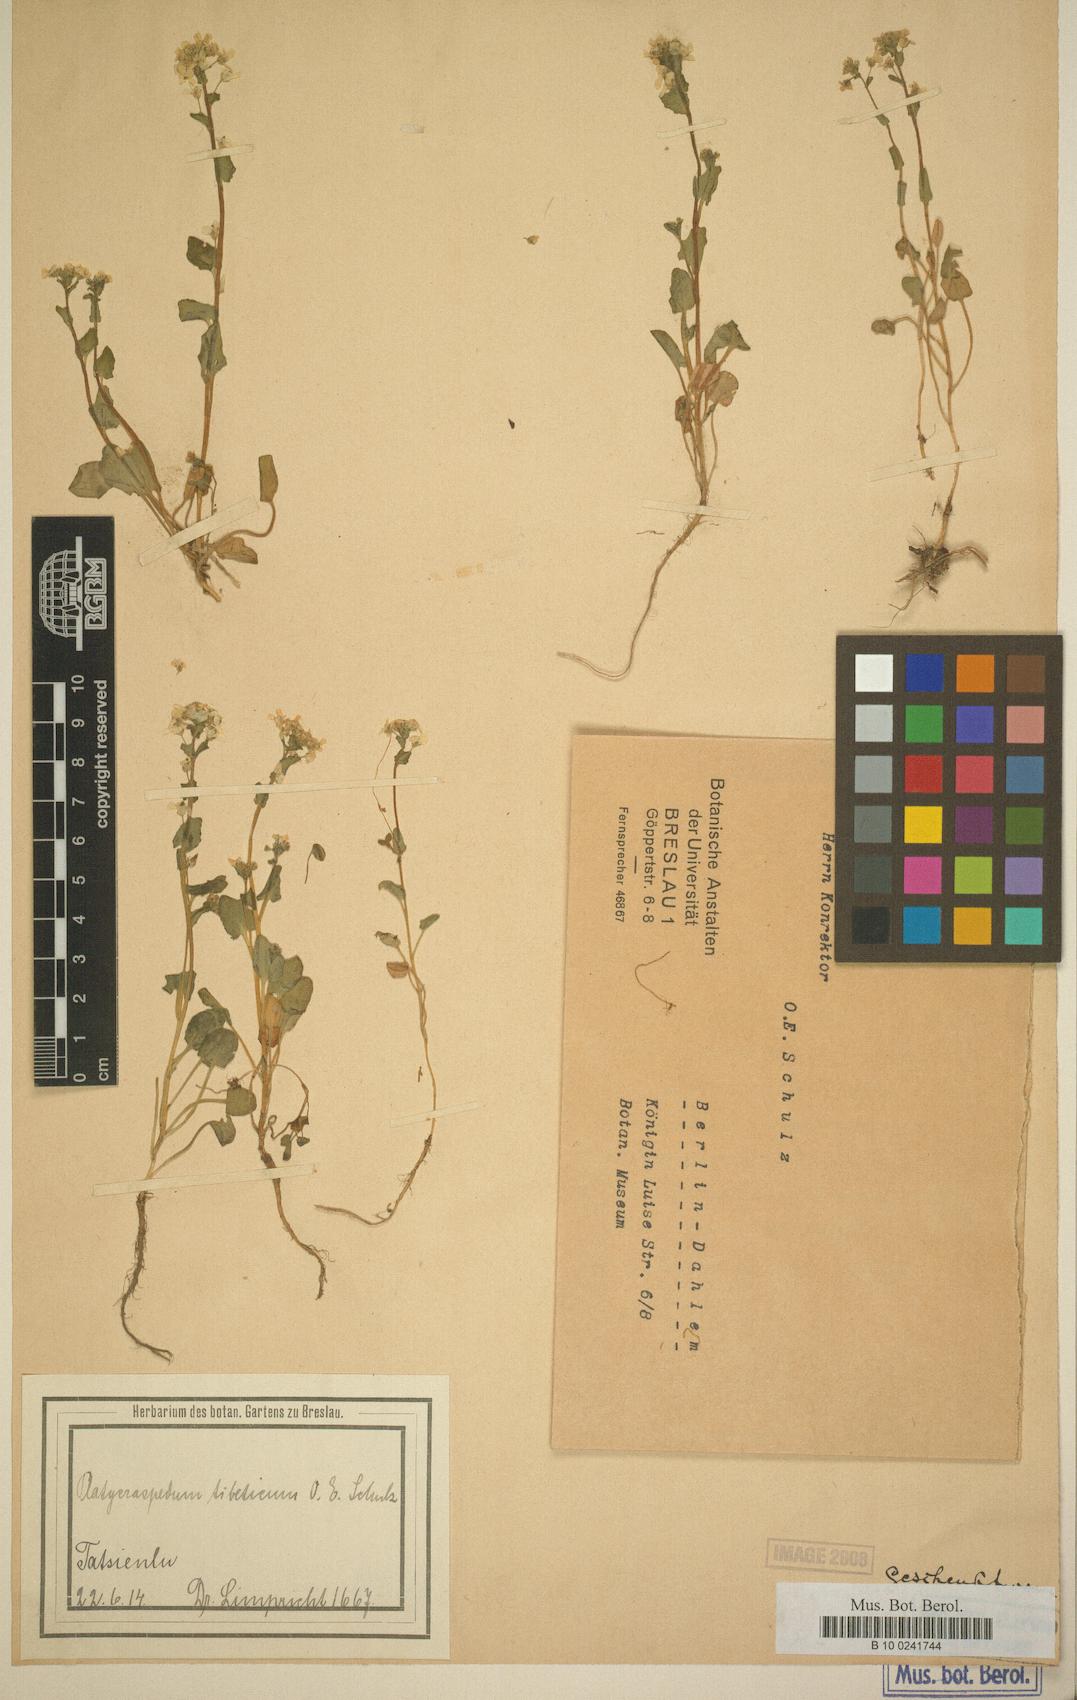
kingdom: Plantae
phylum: Tracheophyta
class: Magnoliopsida
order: Brassicales
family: Brassicaceae
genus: Eutrema
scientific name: Eutrema schulzii
